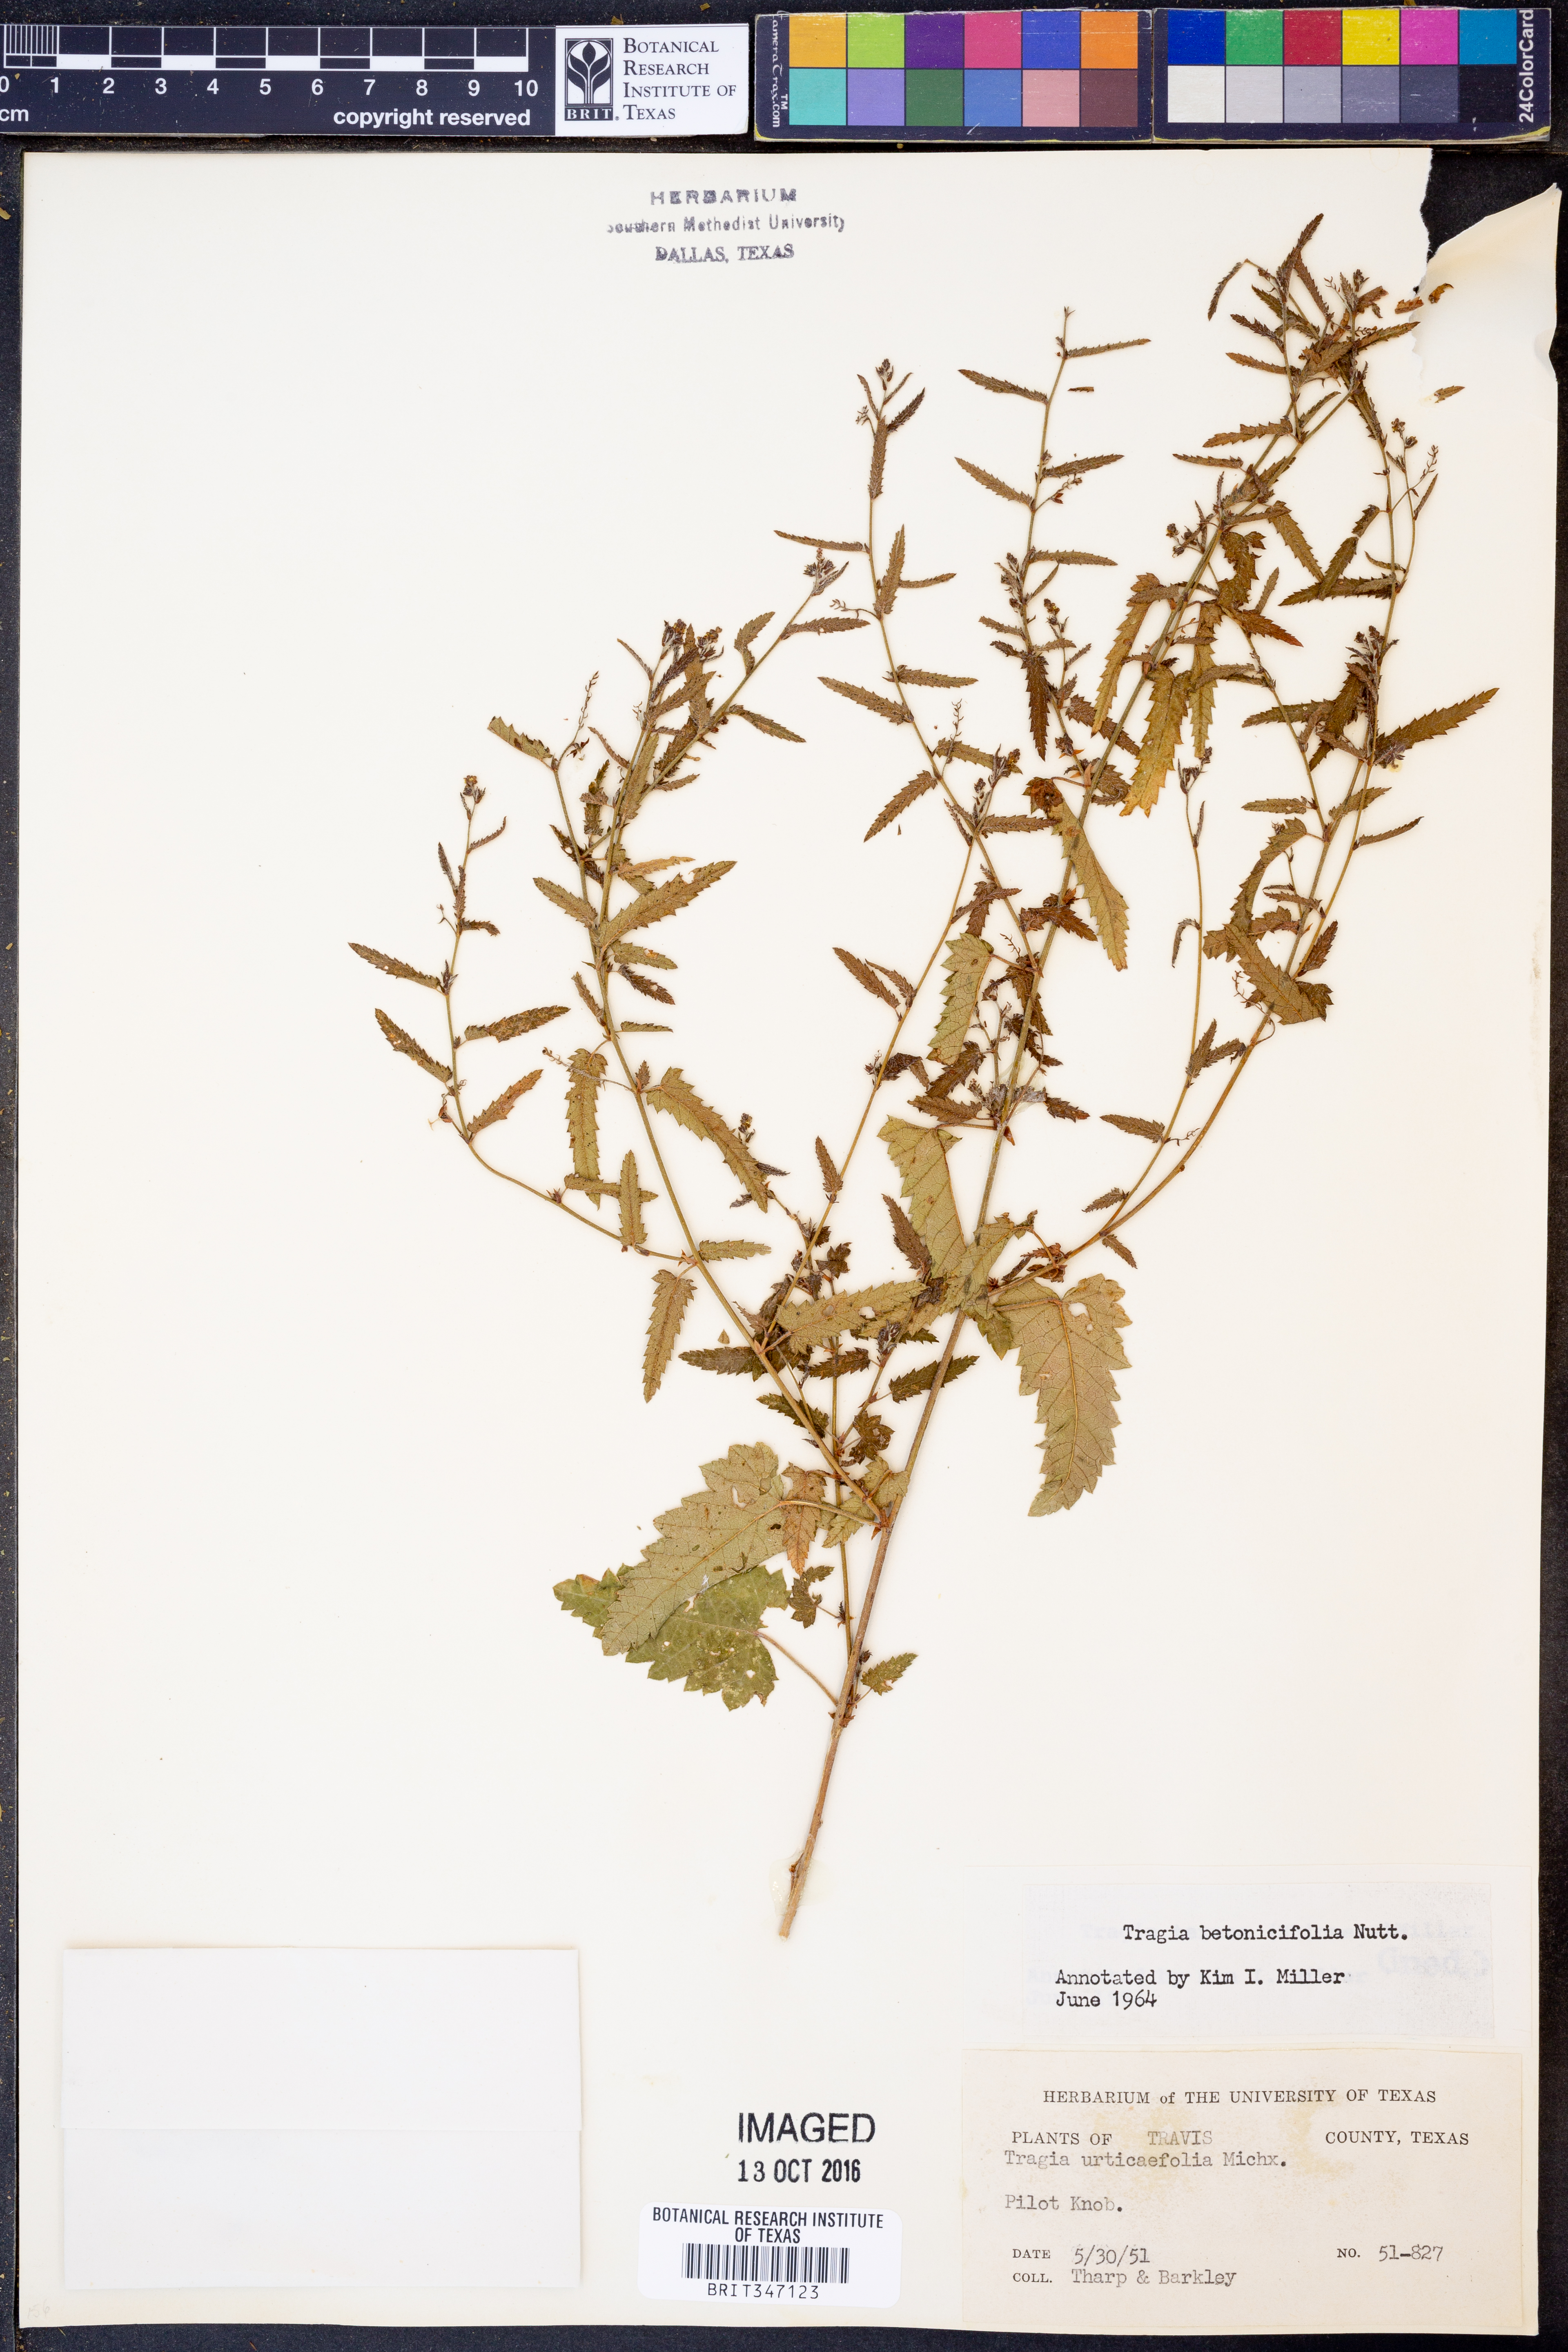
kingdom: Plantae
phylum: Tracheophyta
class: Magnoliopsida
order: Malpighiales
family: Euphorbiaceae
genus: Tragia
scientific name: Tragia betonicifolia
